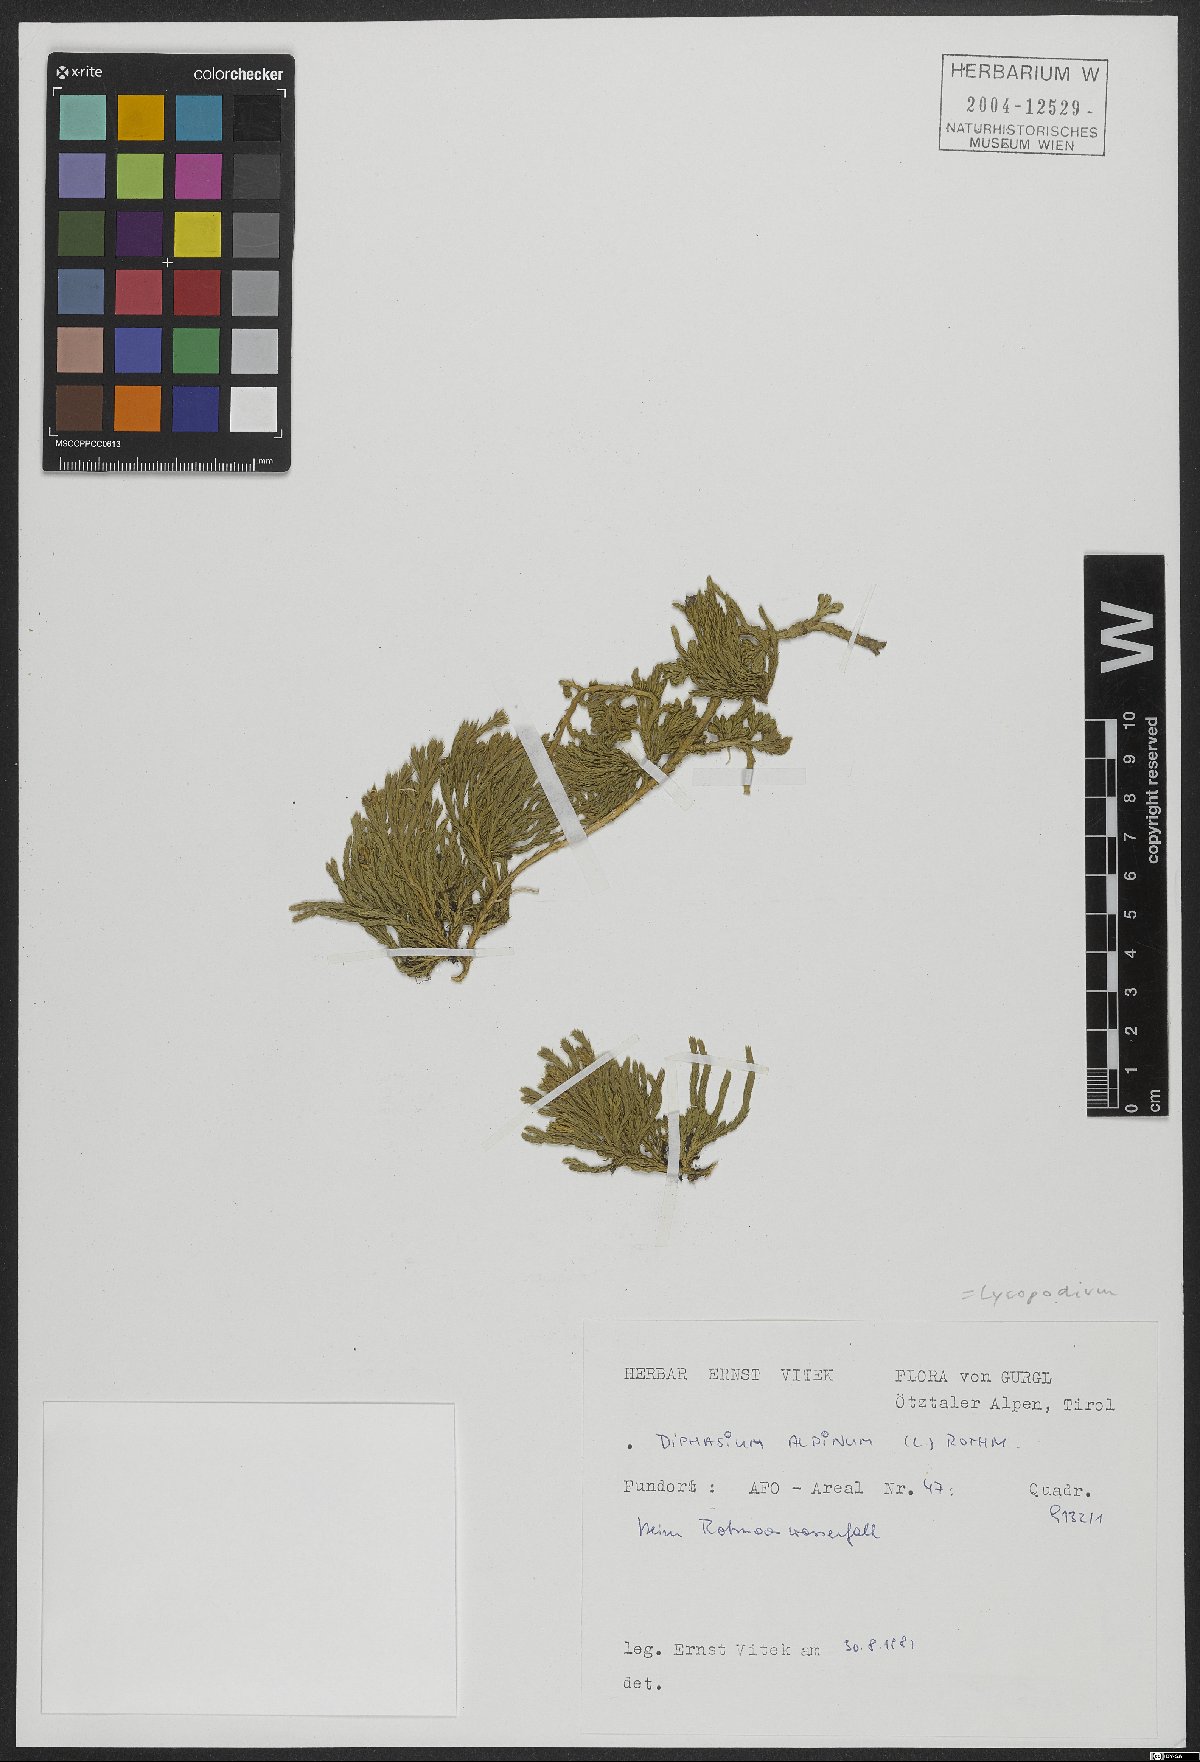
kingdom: Plantae
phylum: Tracheophyta
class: Lycopodiopsida
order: Lycopodiales
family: Lycopodiaceae
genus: Diphasiastrum
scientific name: Diphasiastrum alpinum
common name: Alpine clubmoss
